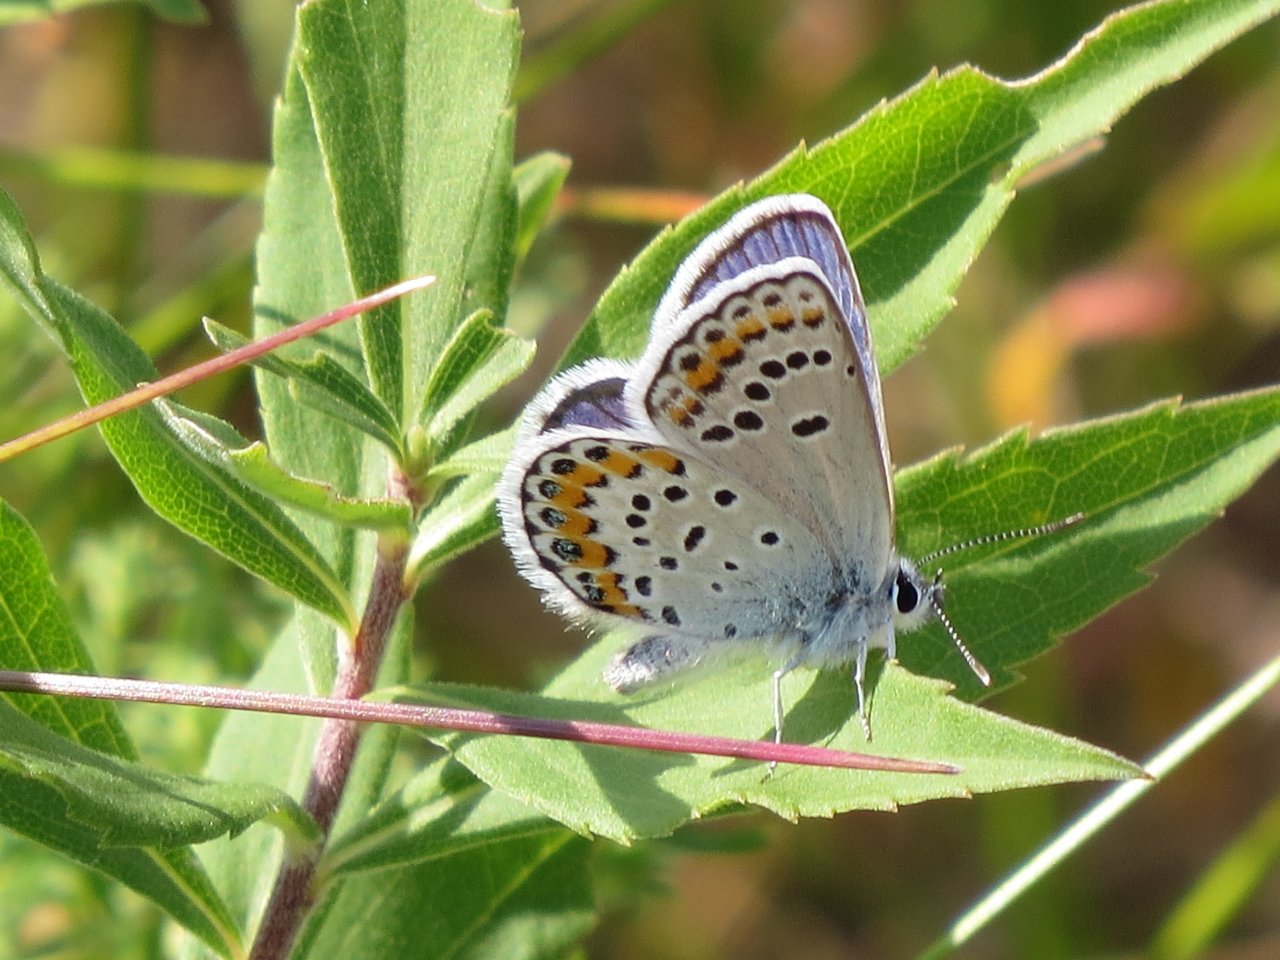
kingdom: Animalia
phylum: Arthropoda
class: Insecta
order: Lepidoptera
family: Lycaenidae
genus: Lycaeides
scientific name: Lycaeides melissa
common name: Melissa Blue
